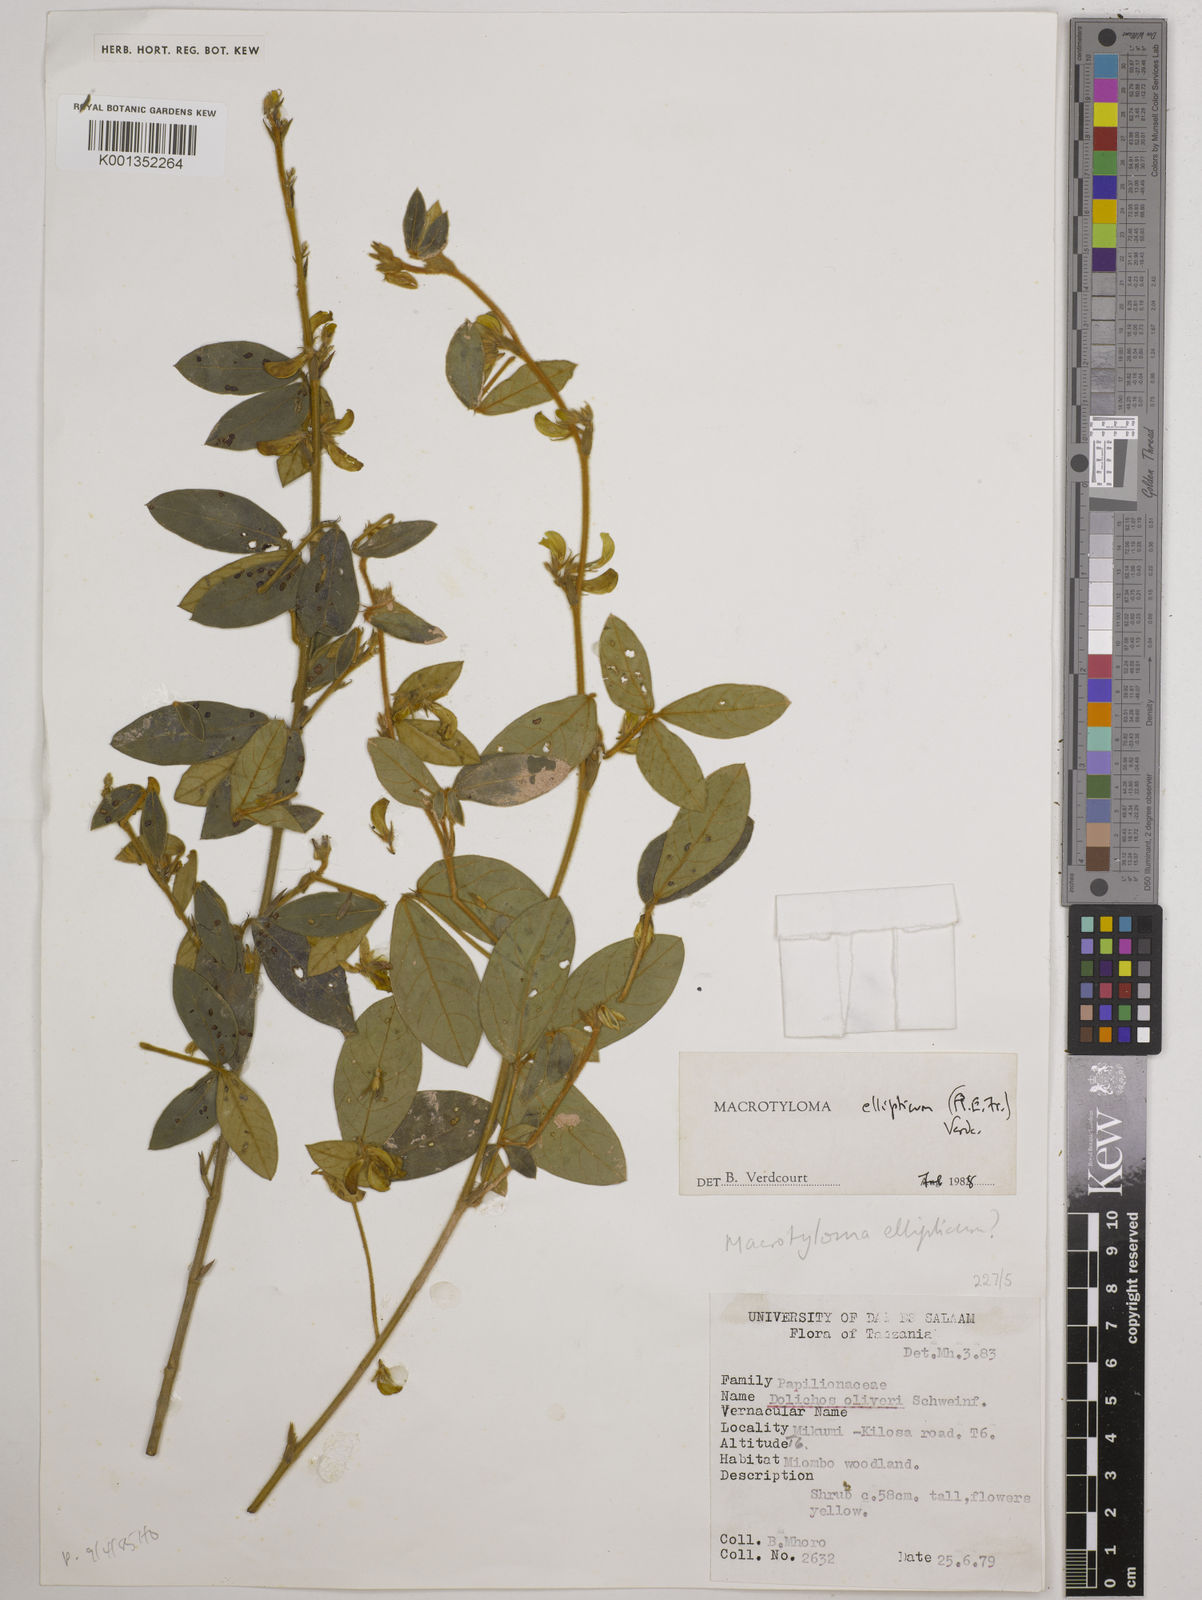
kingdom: Plantae
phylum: Tracheophyta
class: Magnoliopsida
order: Fabales
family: Fabaceae
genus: Macrotyloma
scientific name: Macrotyloma ellipticum
